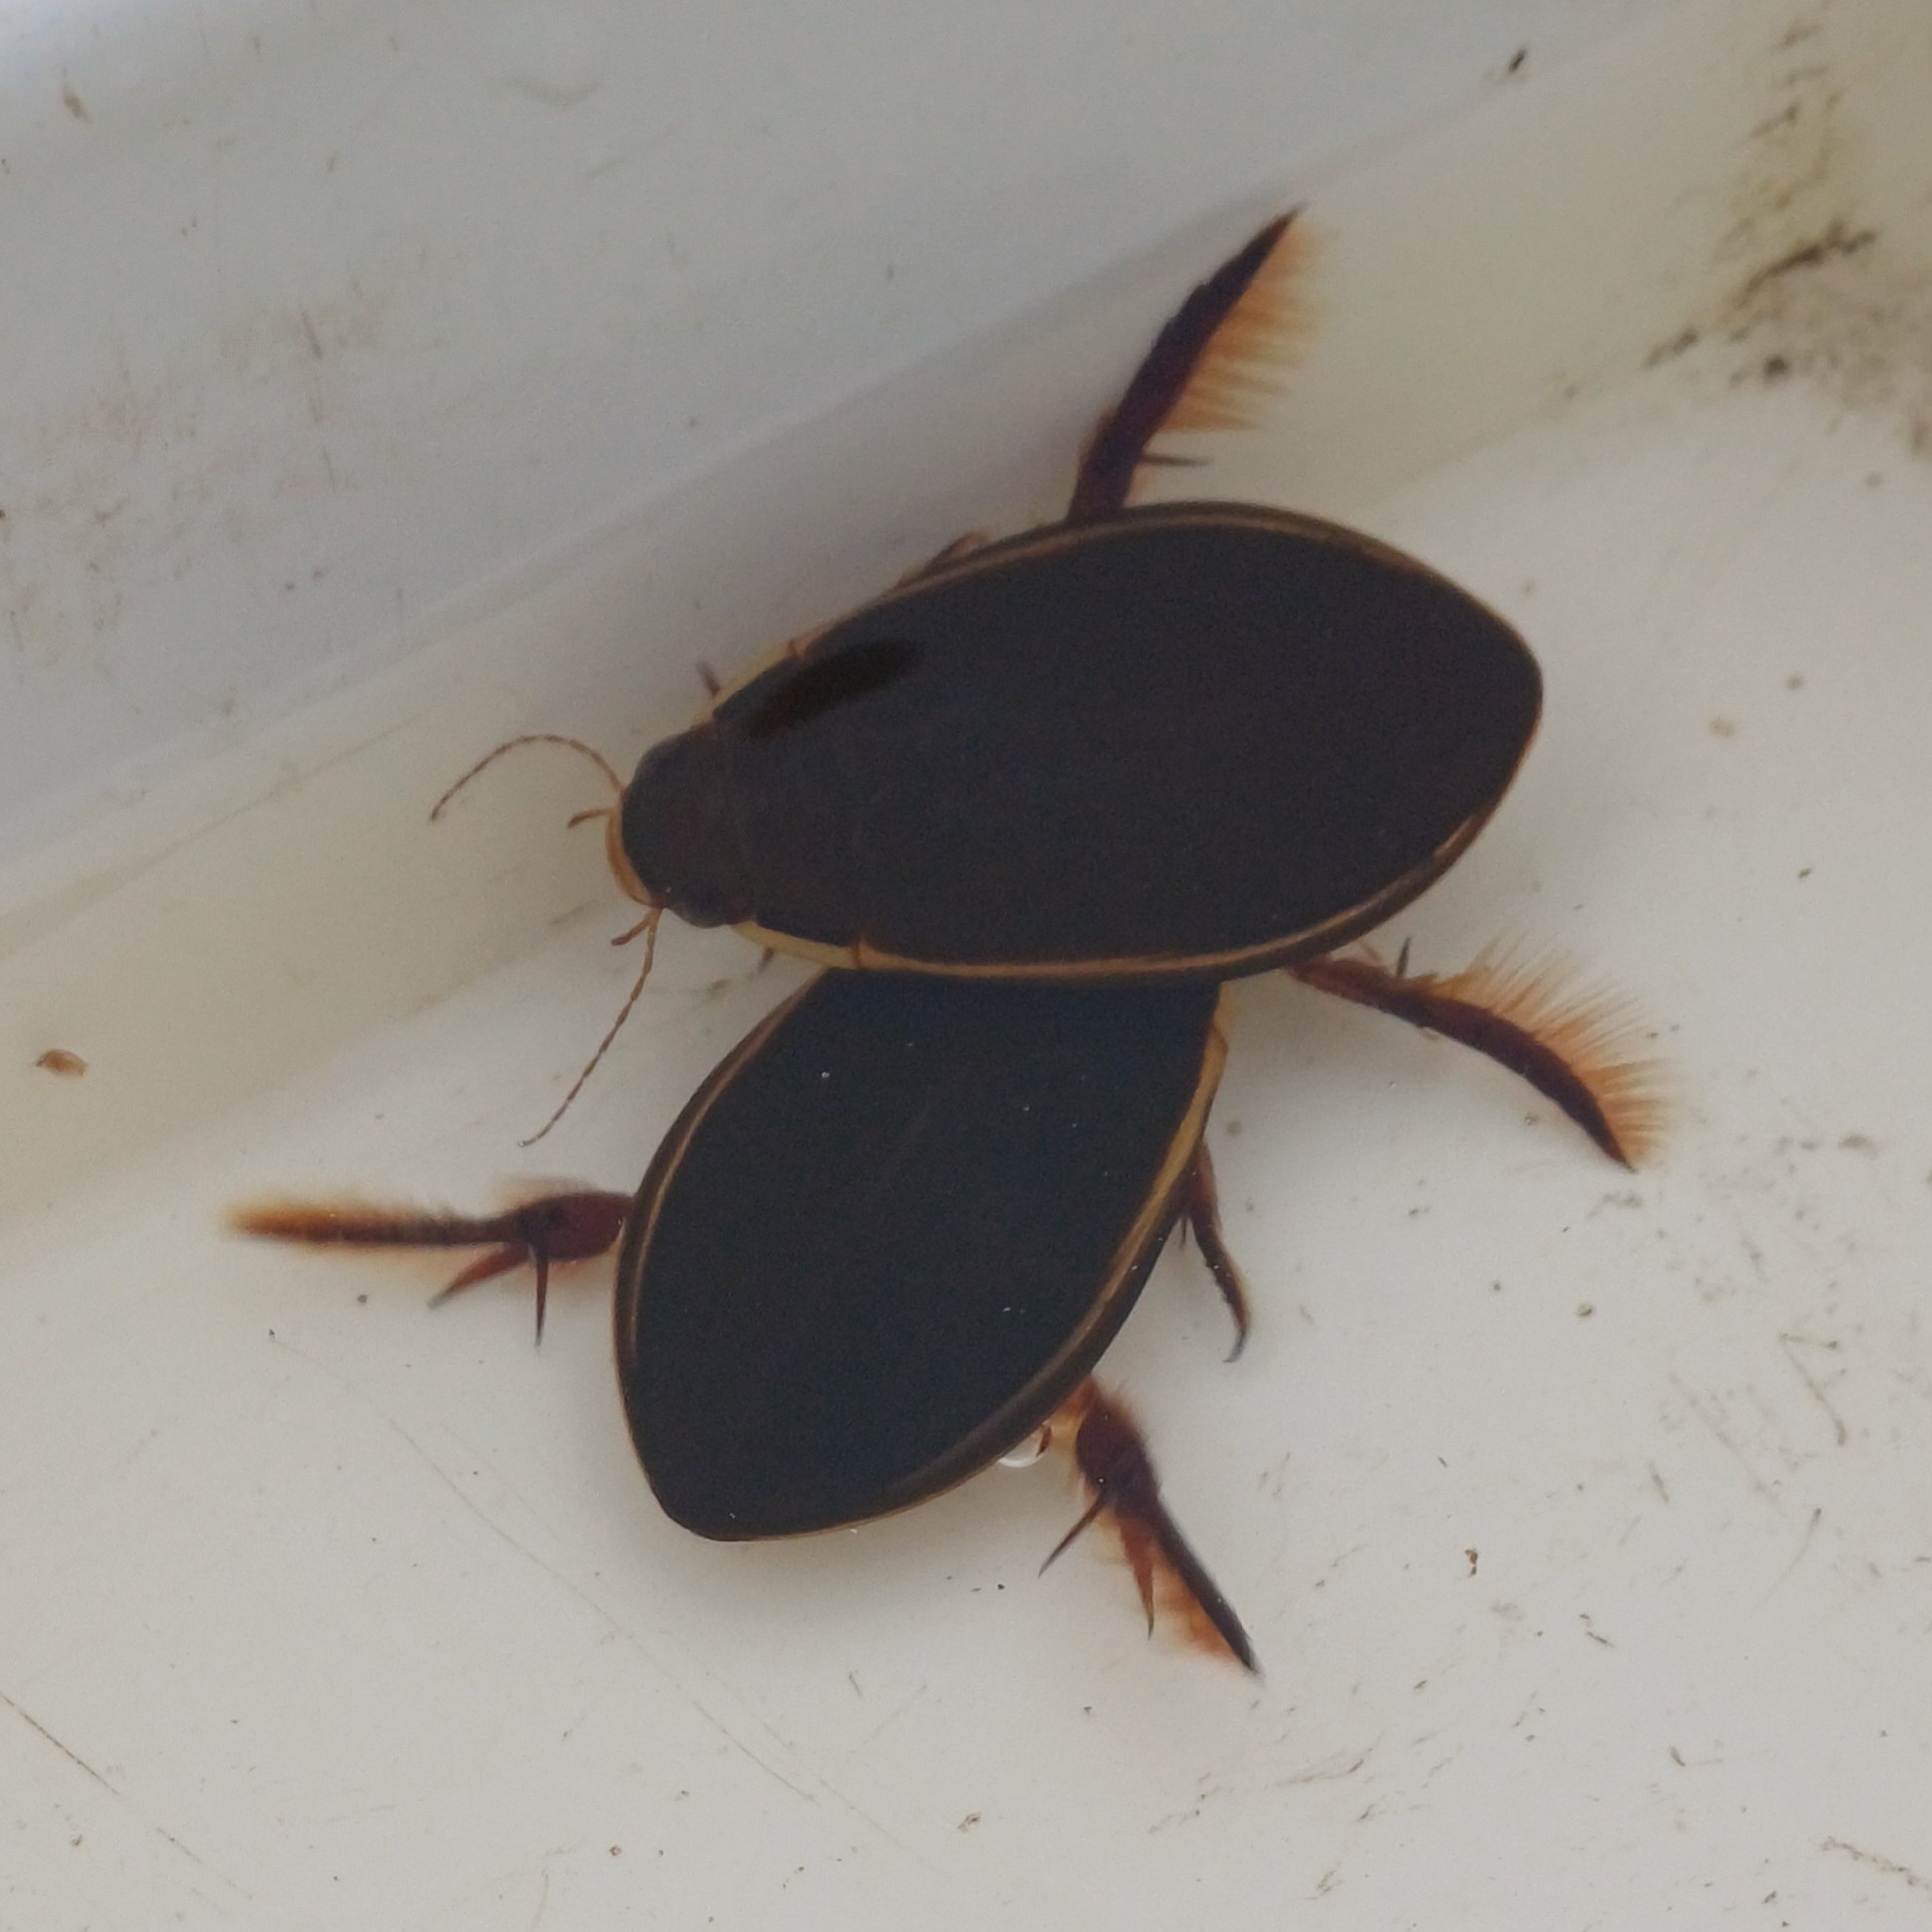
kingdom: Animalia
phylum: Arthropoda
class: Insecta
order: Coleoptera
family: Dytiscidae
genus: Cybister
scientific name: Cybister lateralimarginalis
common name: Dykkervandkalv
